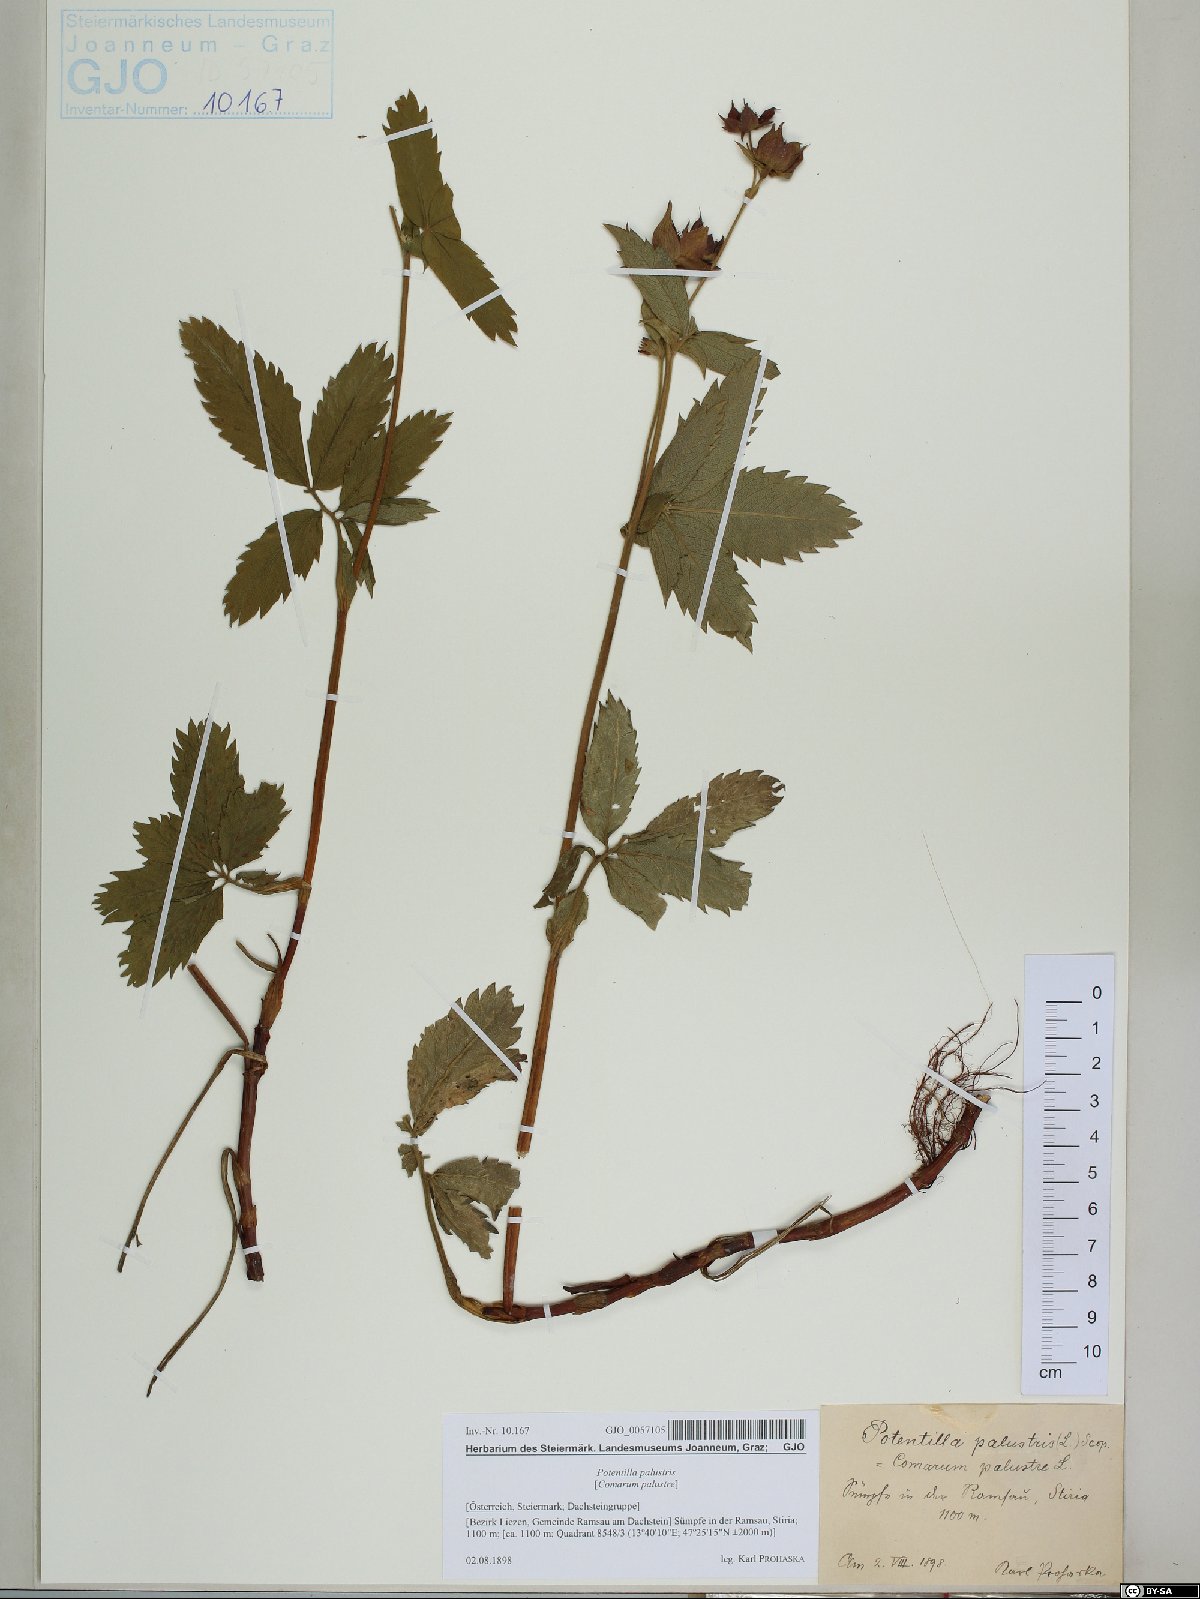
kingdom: Plantae
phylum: Tracheophyta
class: Magnoliopsida
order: Rosales
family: Rosaceae
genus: Comarum
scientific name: Comarum palustre
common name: Marsh cinquefoil
